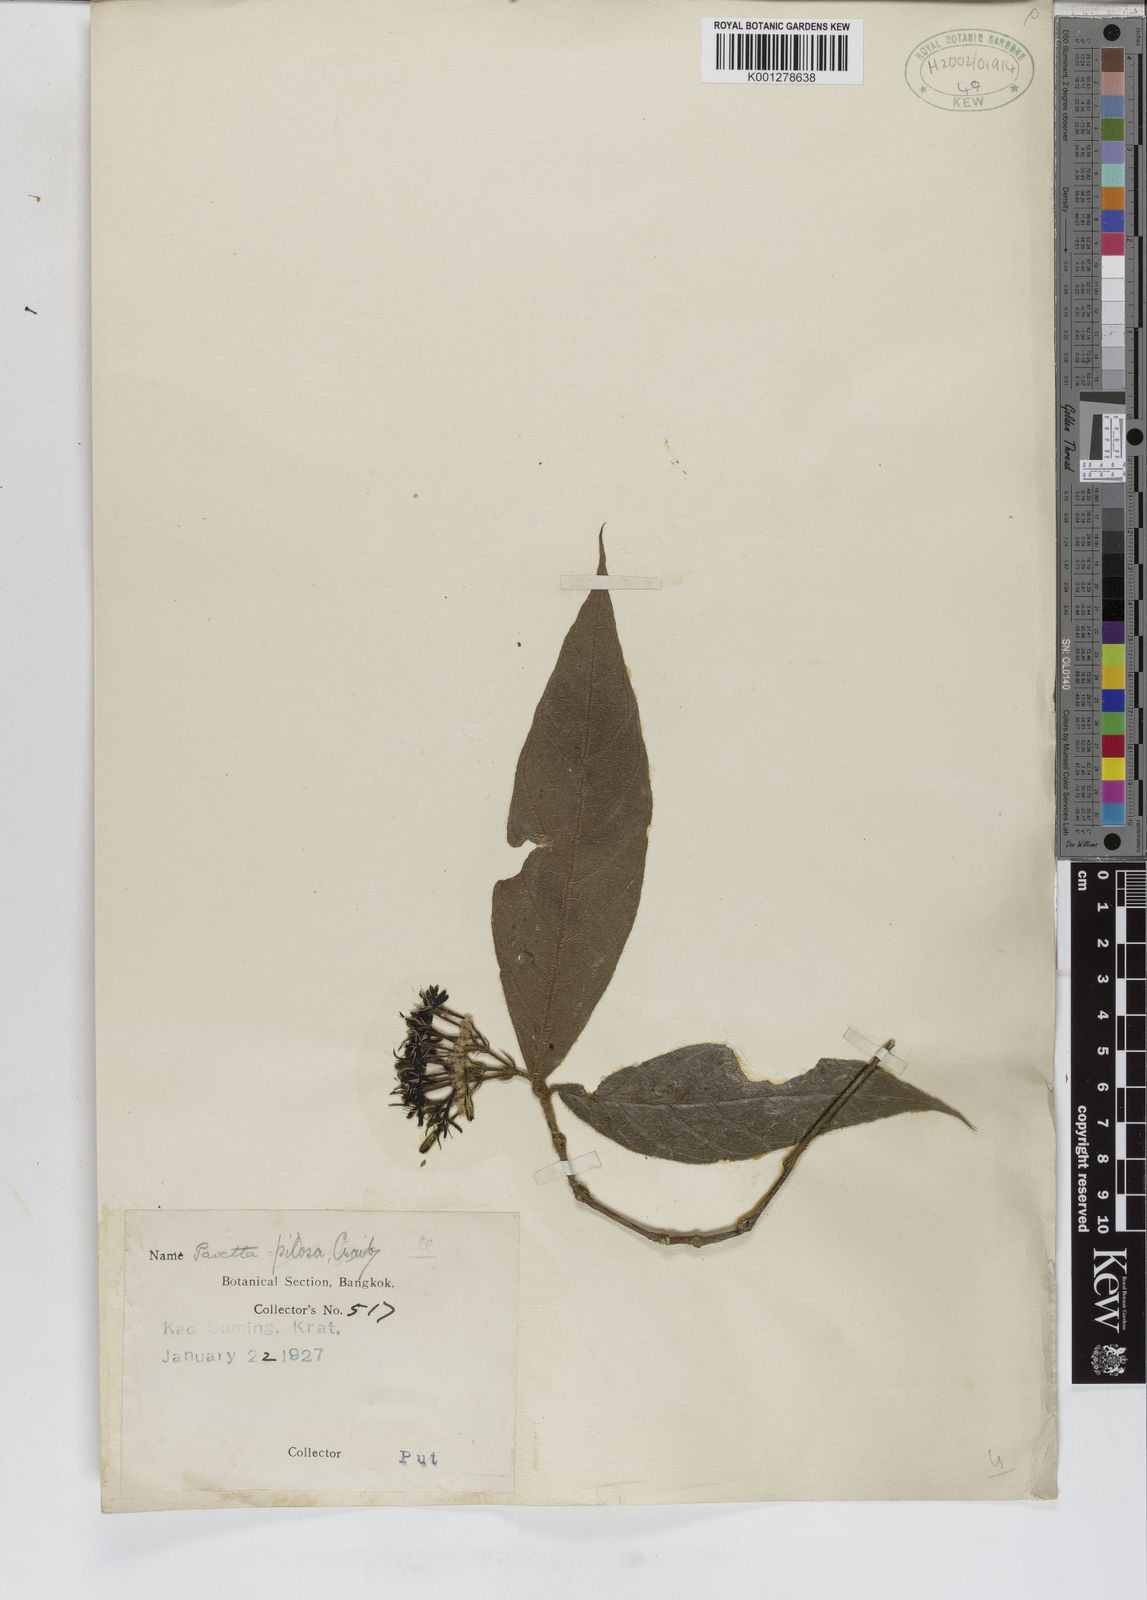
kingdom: Plantae
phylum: Tracheophyta
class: Magnoliopsida
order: Gentianales
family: Rubiaceae
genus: Tarenna
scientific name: Tarenna pilosa
